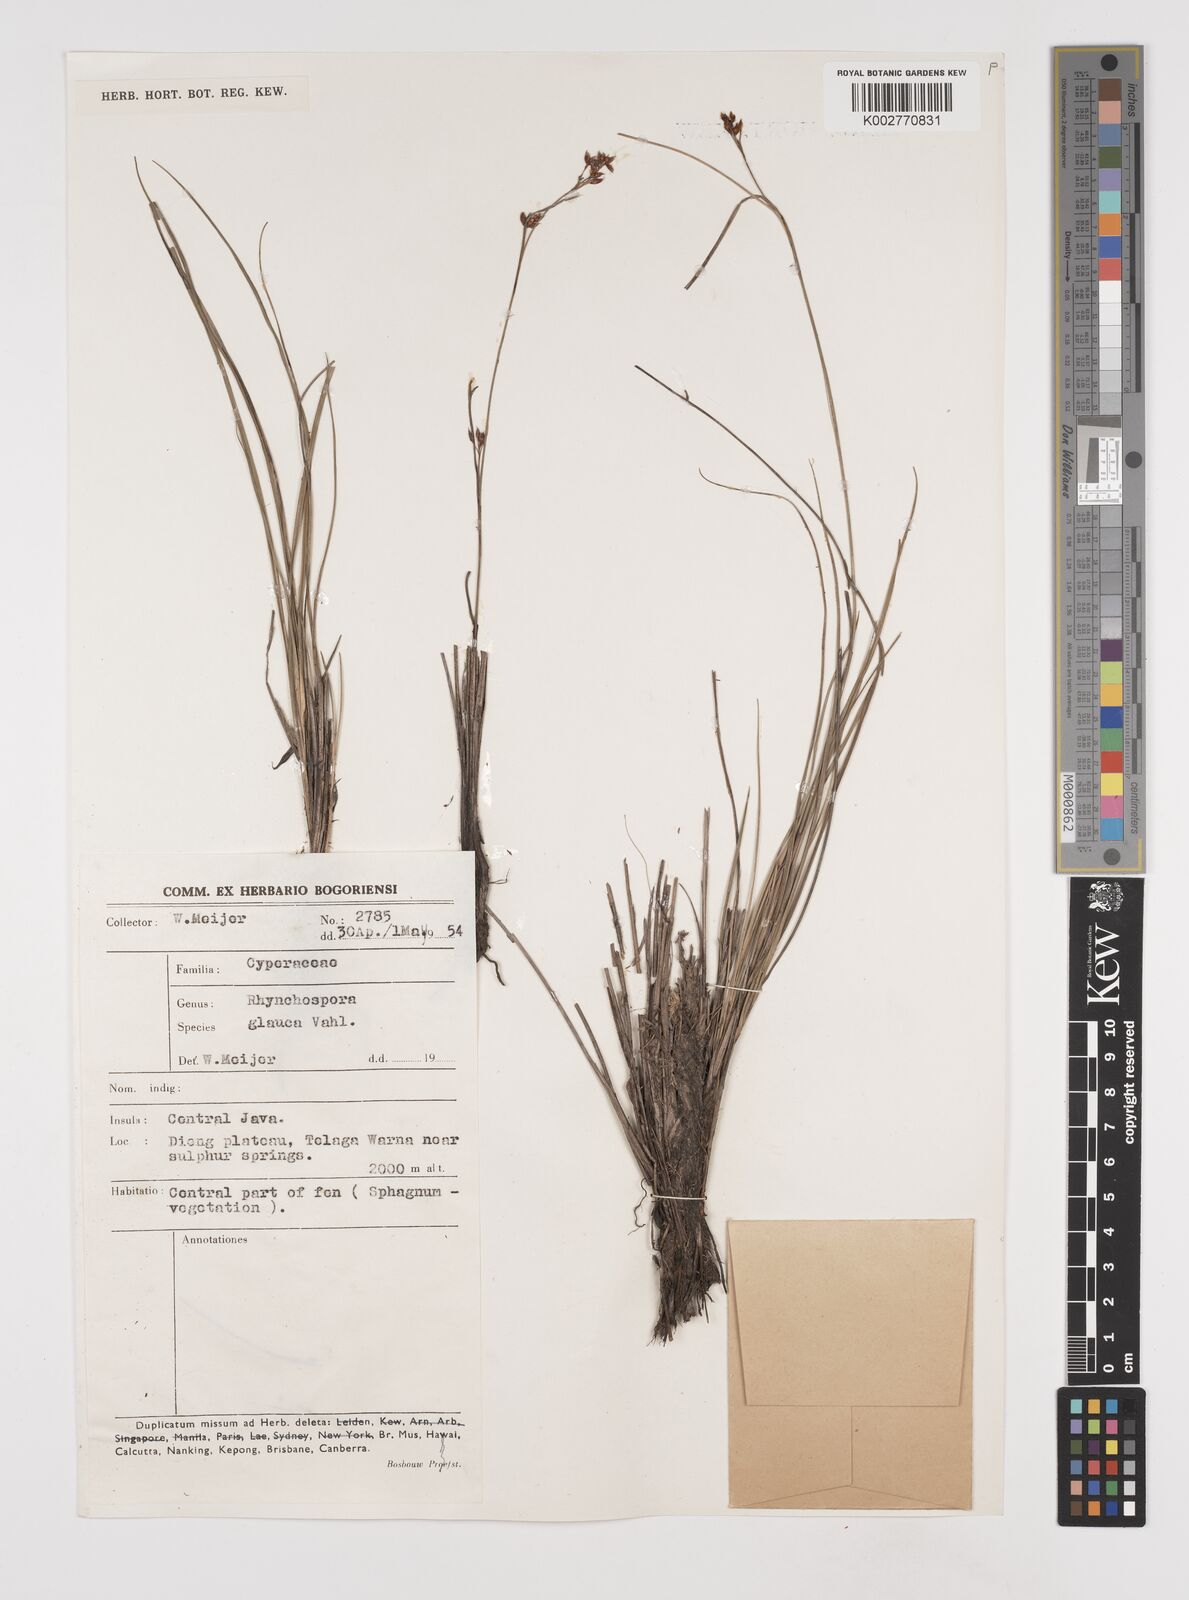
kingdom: Plantae
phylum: Tracheophyta
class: Liliopsida
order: Poales
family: Cyperaceae
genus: Rhynchospora
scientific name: Rhynchospora rugosa
